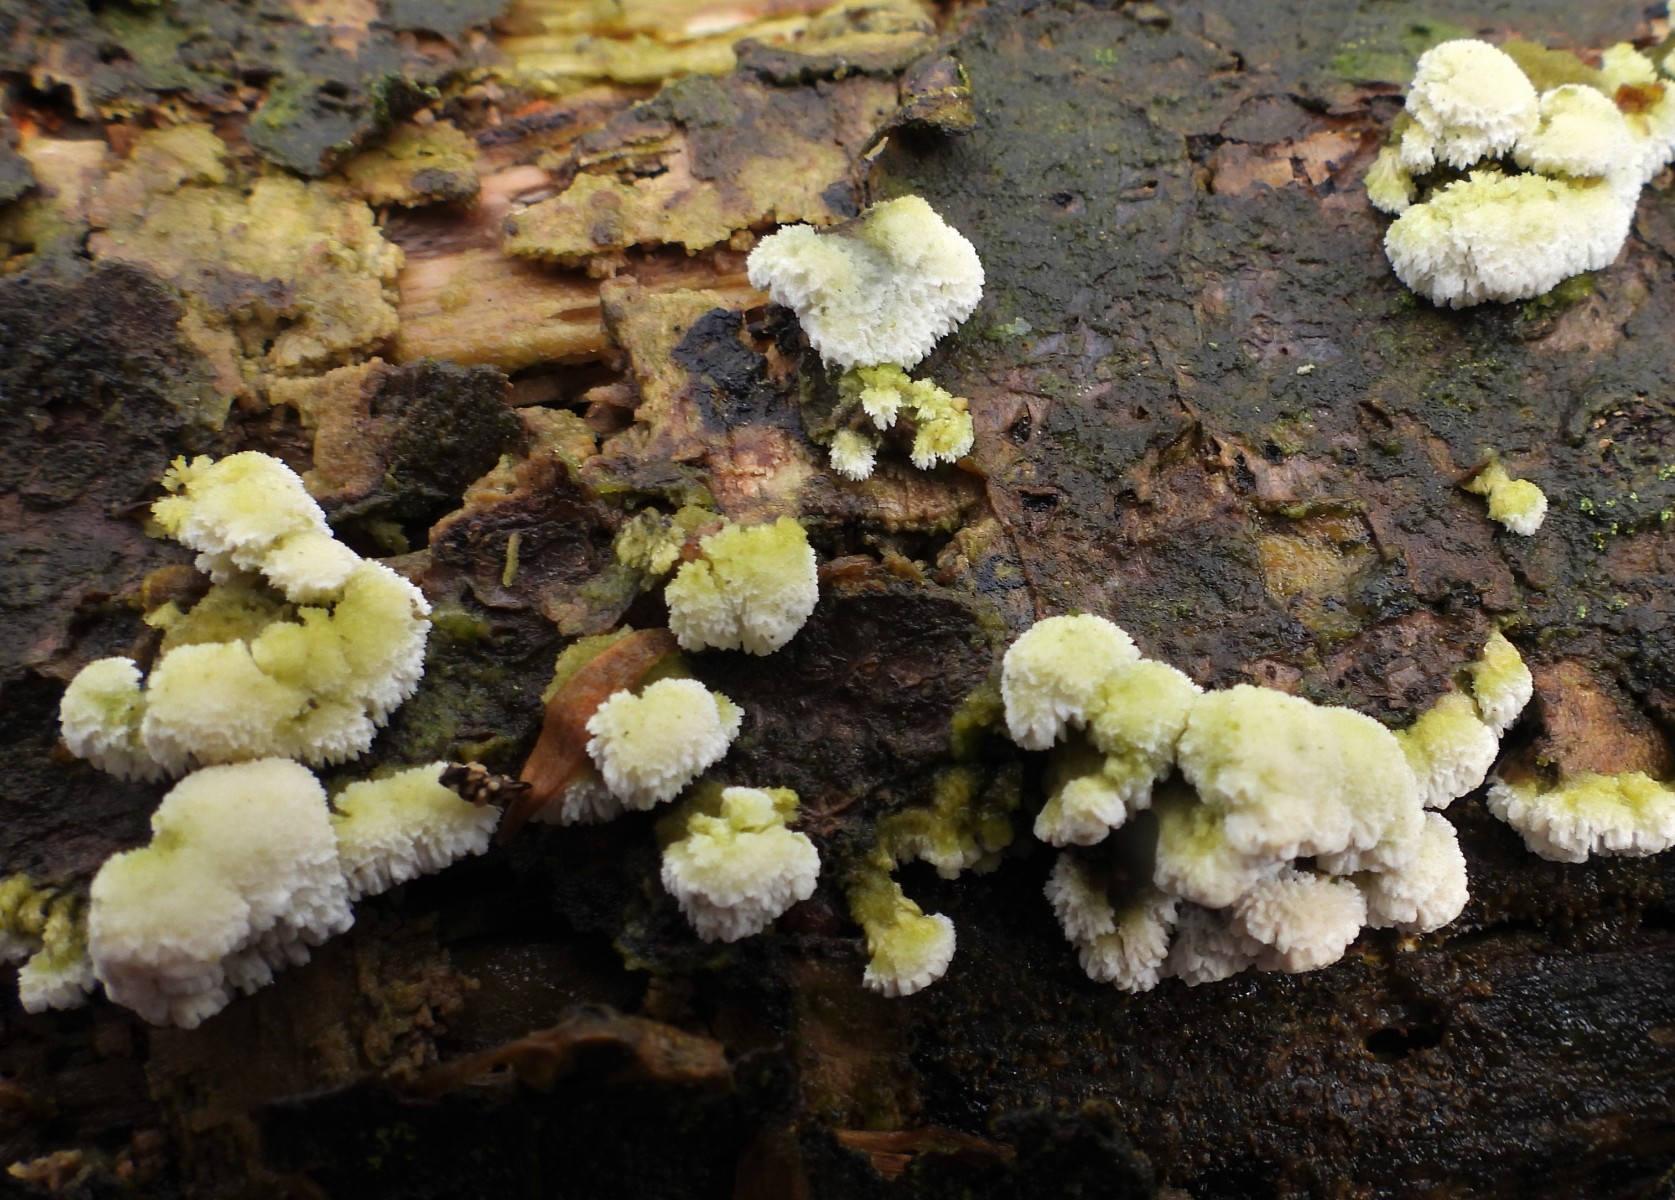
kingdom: Fungi
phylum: Basidiomycota
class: Agaricomycetes
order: Hymenochaetales
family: Schizoporaceae
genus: Schizopora
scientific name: Schizopora paradoxa
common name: hvid tandsvamp
